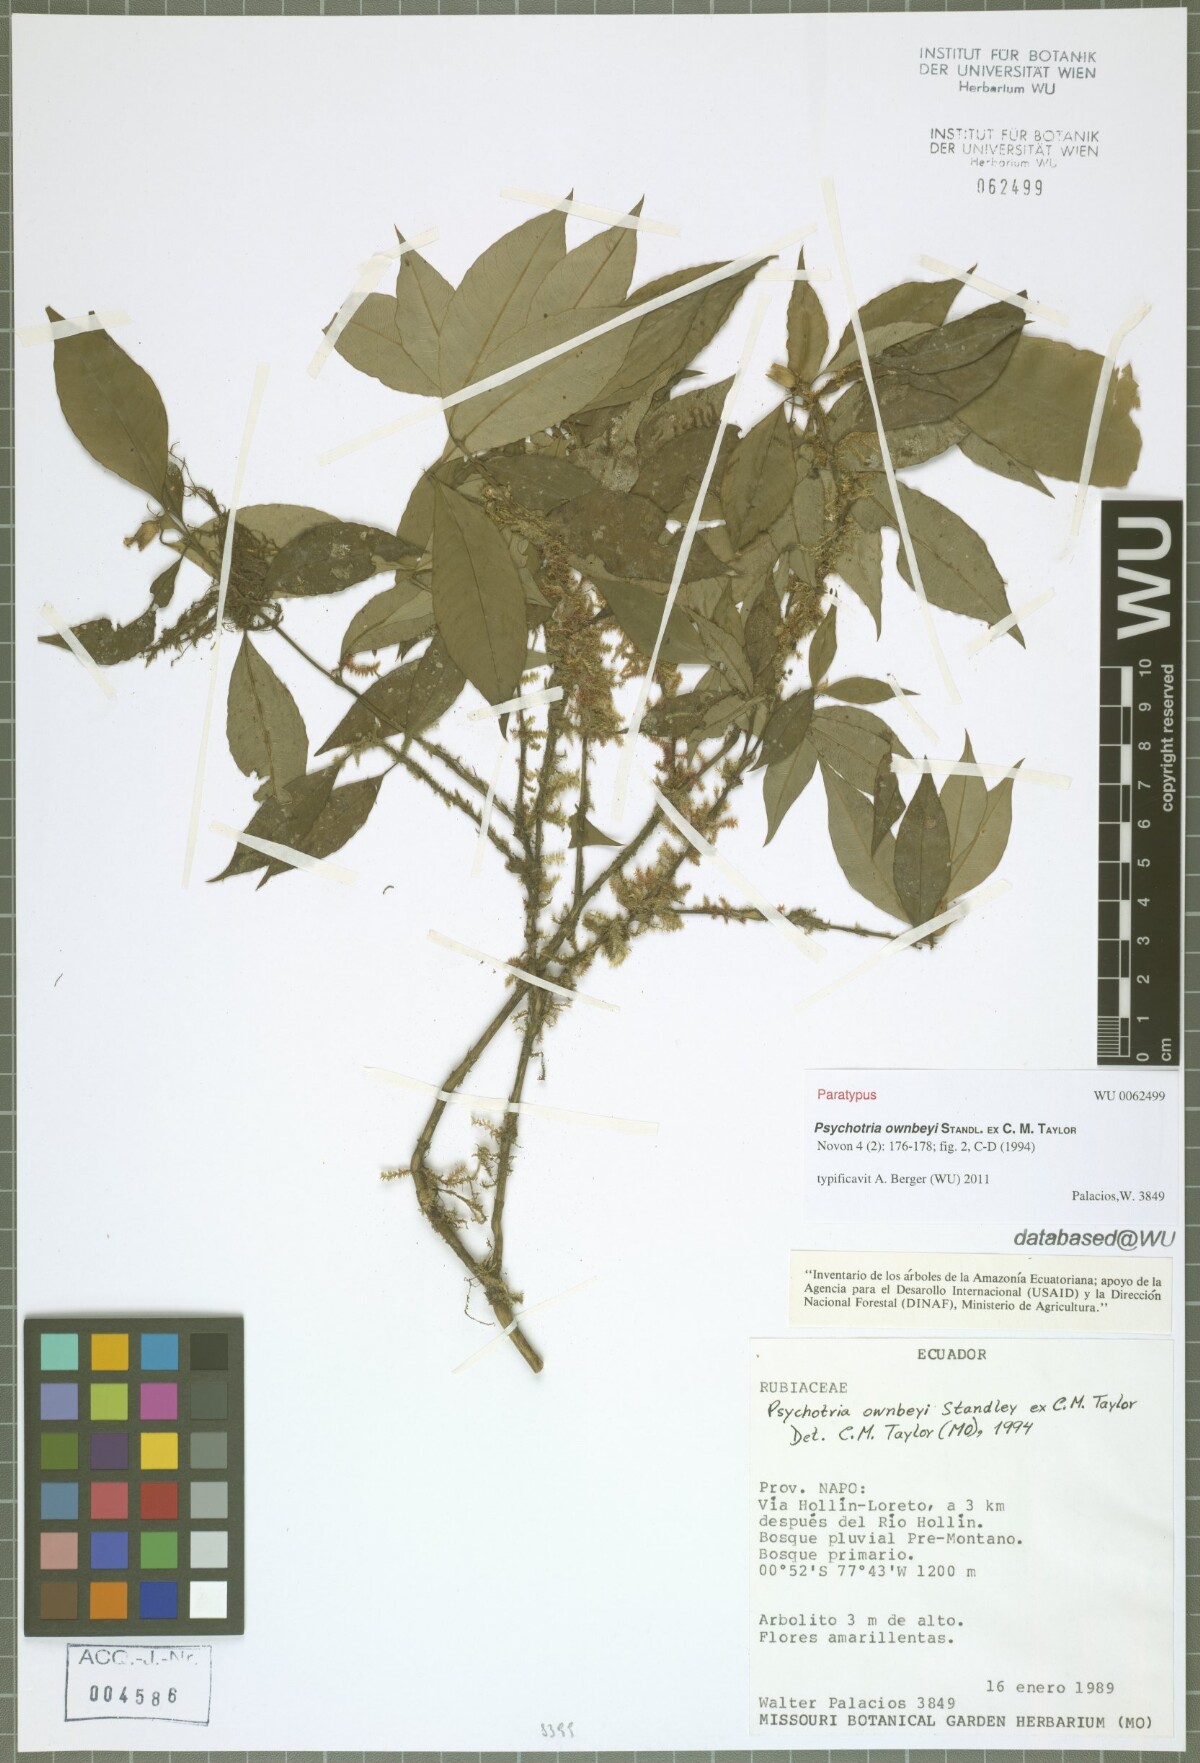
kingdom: Plantae
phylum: Tracheophyta
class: Magnoliopsida
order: Gentianales
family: Rubiaceae
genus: Palicourea
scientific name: Palicourea ownbeyi
